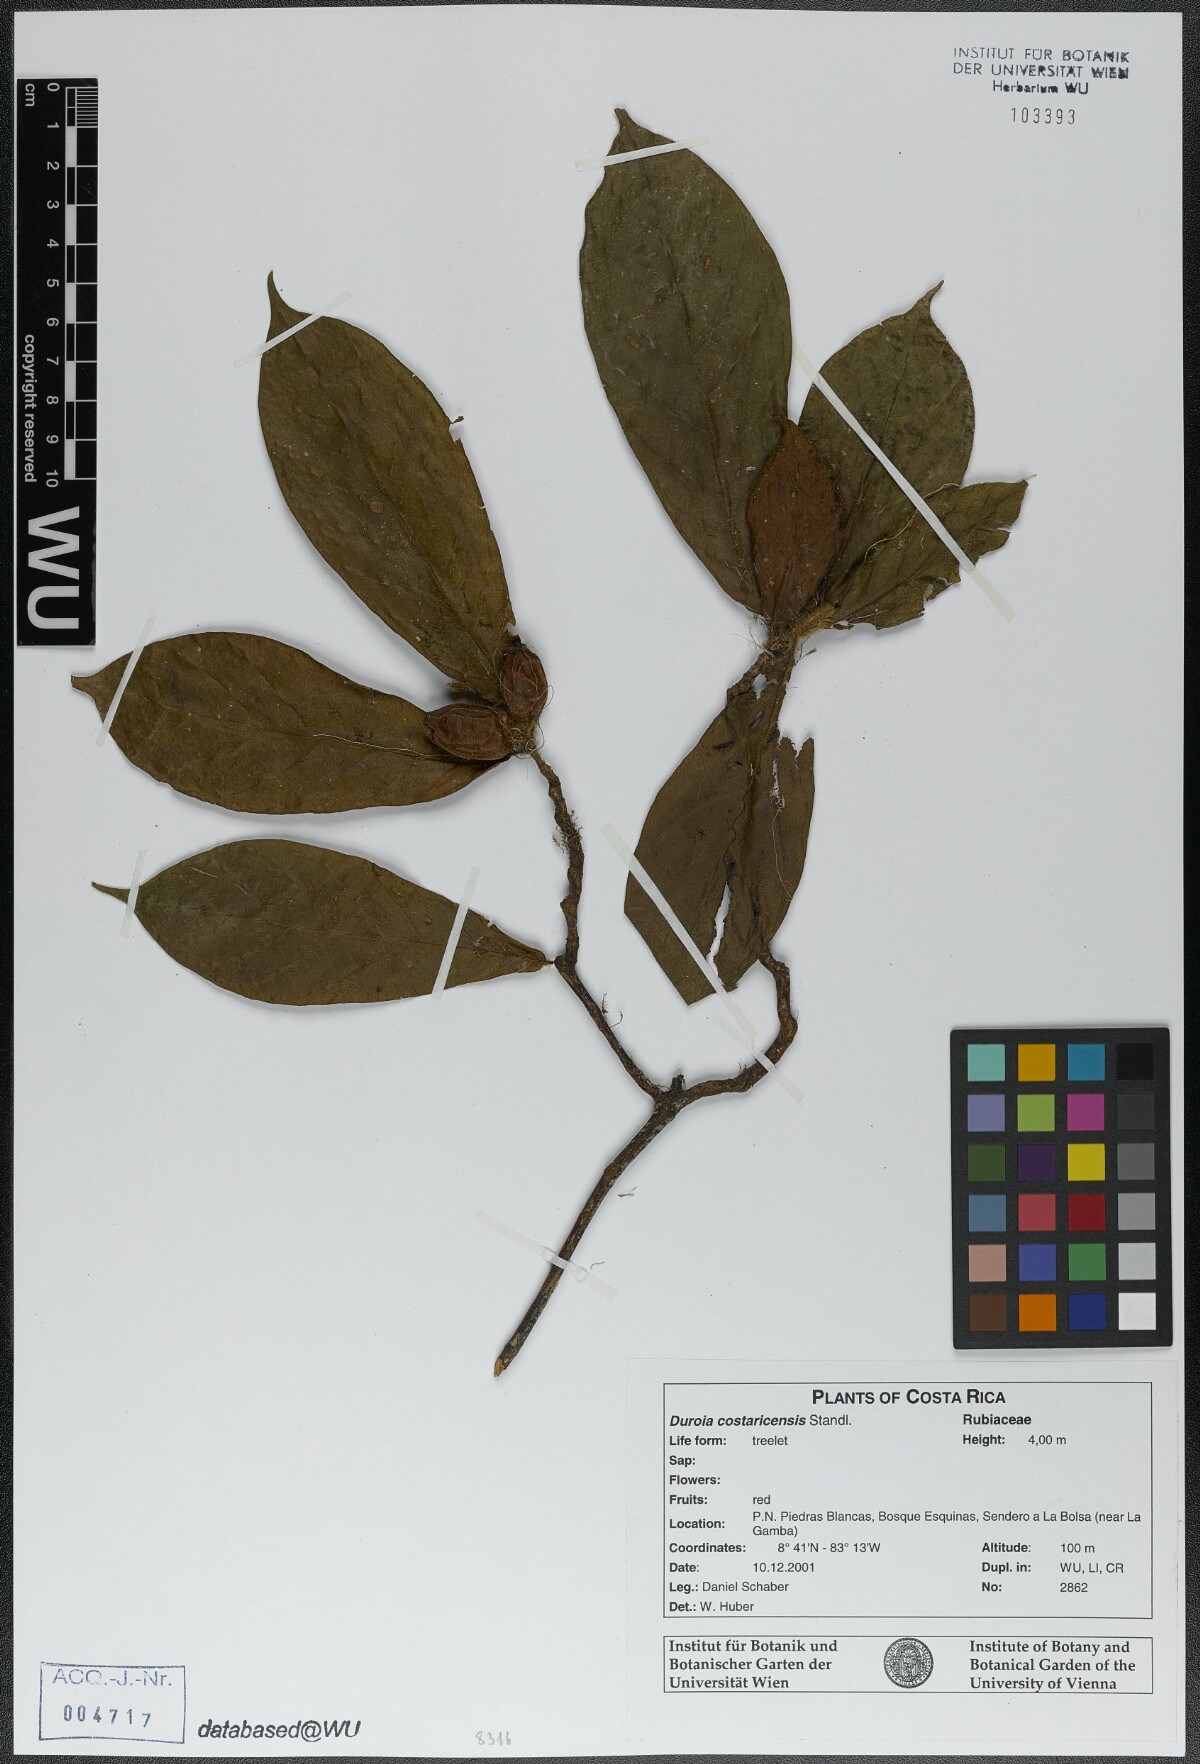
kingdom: Plantae
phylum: Tracheophyta
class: Magnoliopsida
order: Gentianales
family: Rubiaceae
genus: Duroia
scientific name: Duroia costaricensis
